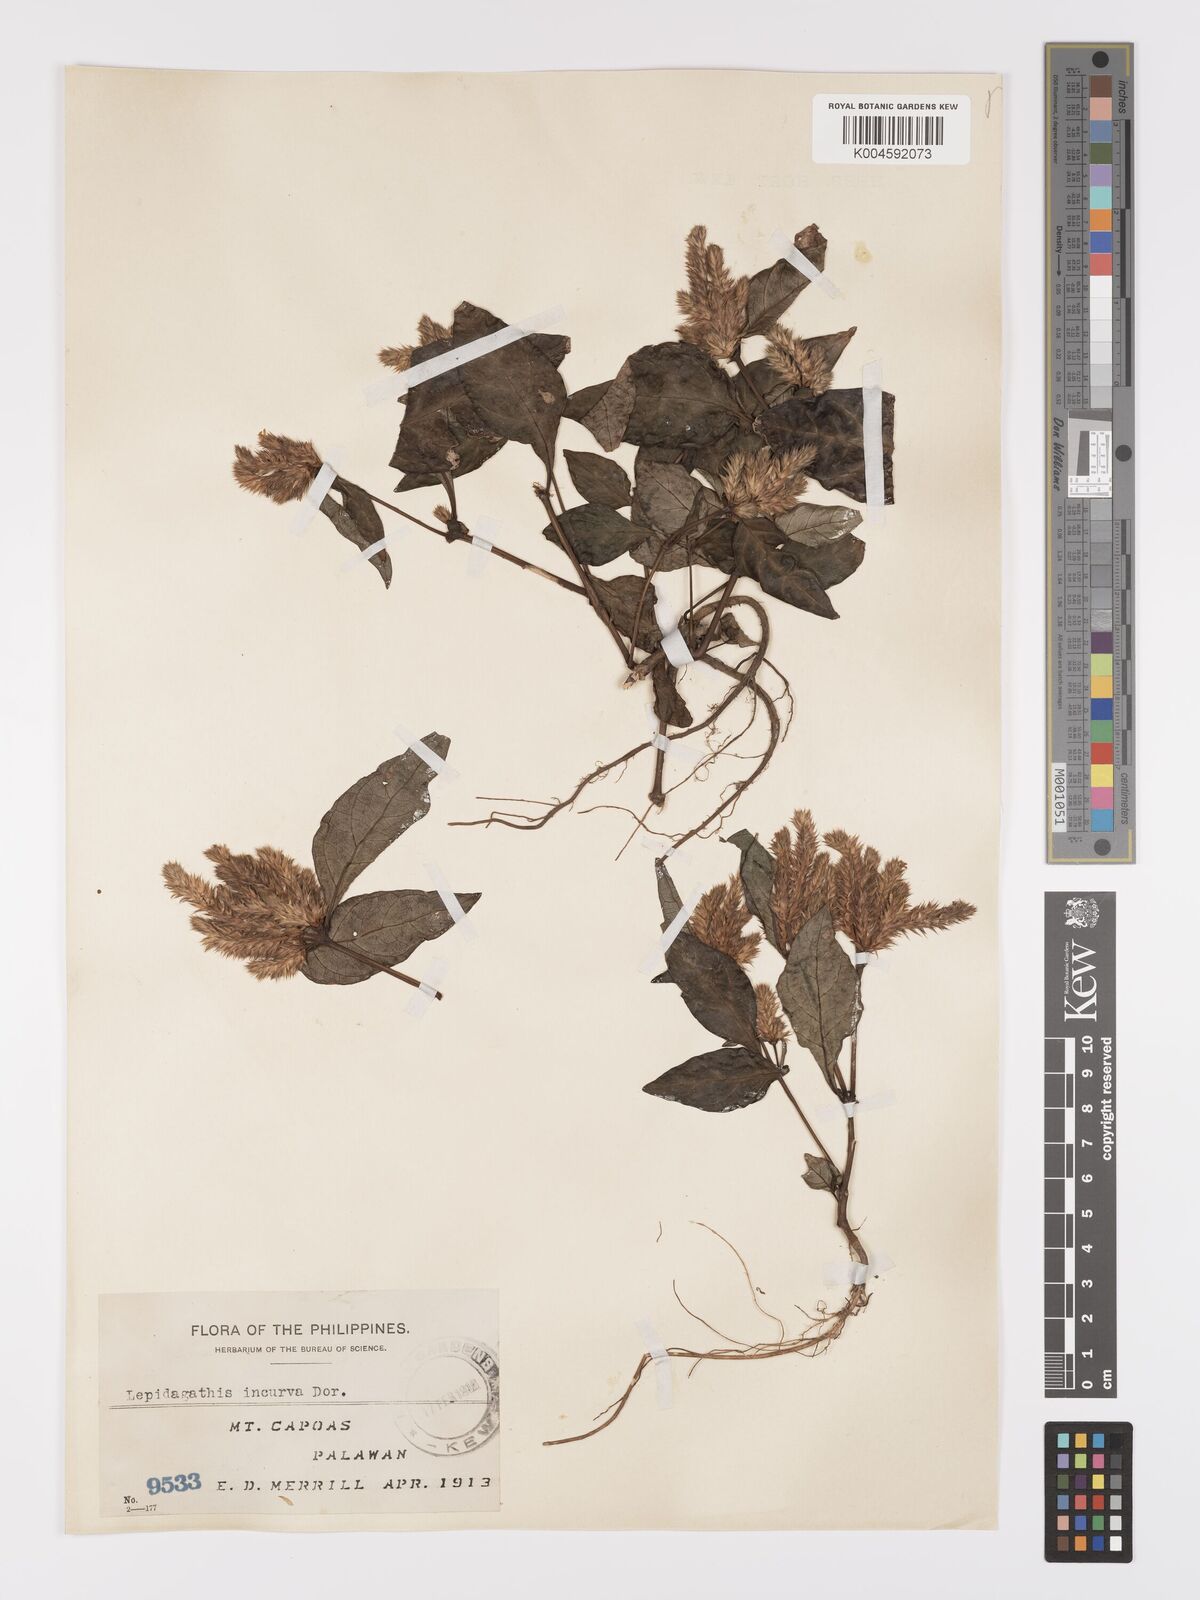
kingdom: Plantae
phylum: Tracheophyta
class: Magnoliopsida
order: Lamiales
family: Acanthaceae
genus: Lepidagathis
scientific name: Lepidagathis incurva
